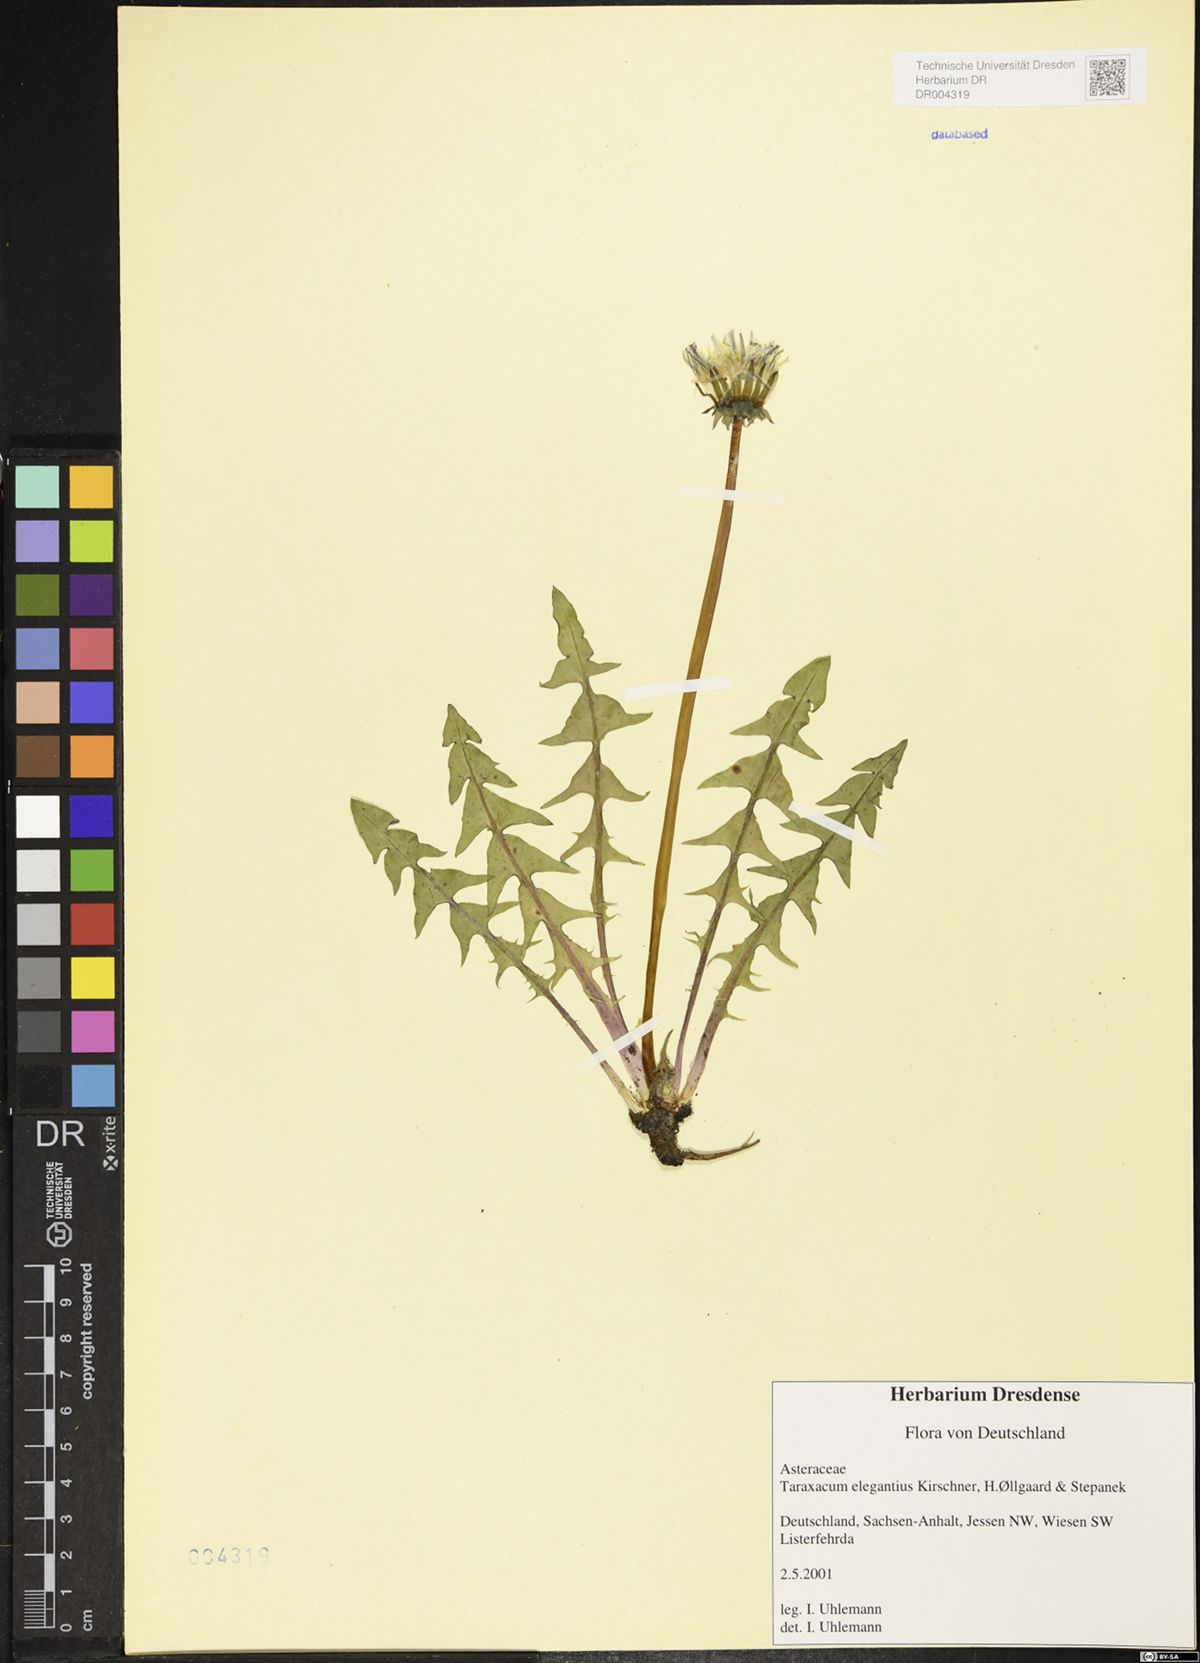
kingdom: Plantae
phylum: Tracheophyta
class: Magnoliopsida
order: Asterales
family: Asteraceae
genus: Taraxacum
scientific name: Taraxacum elegantius
